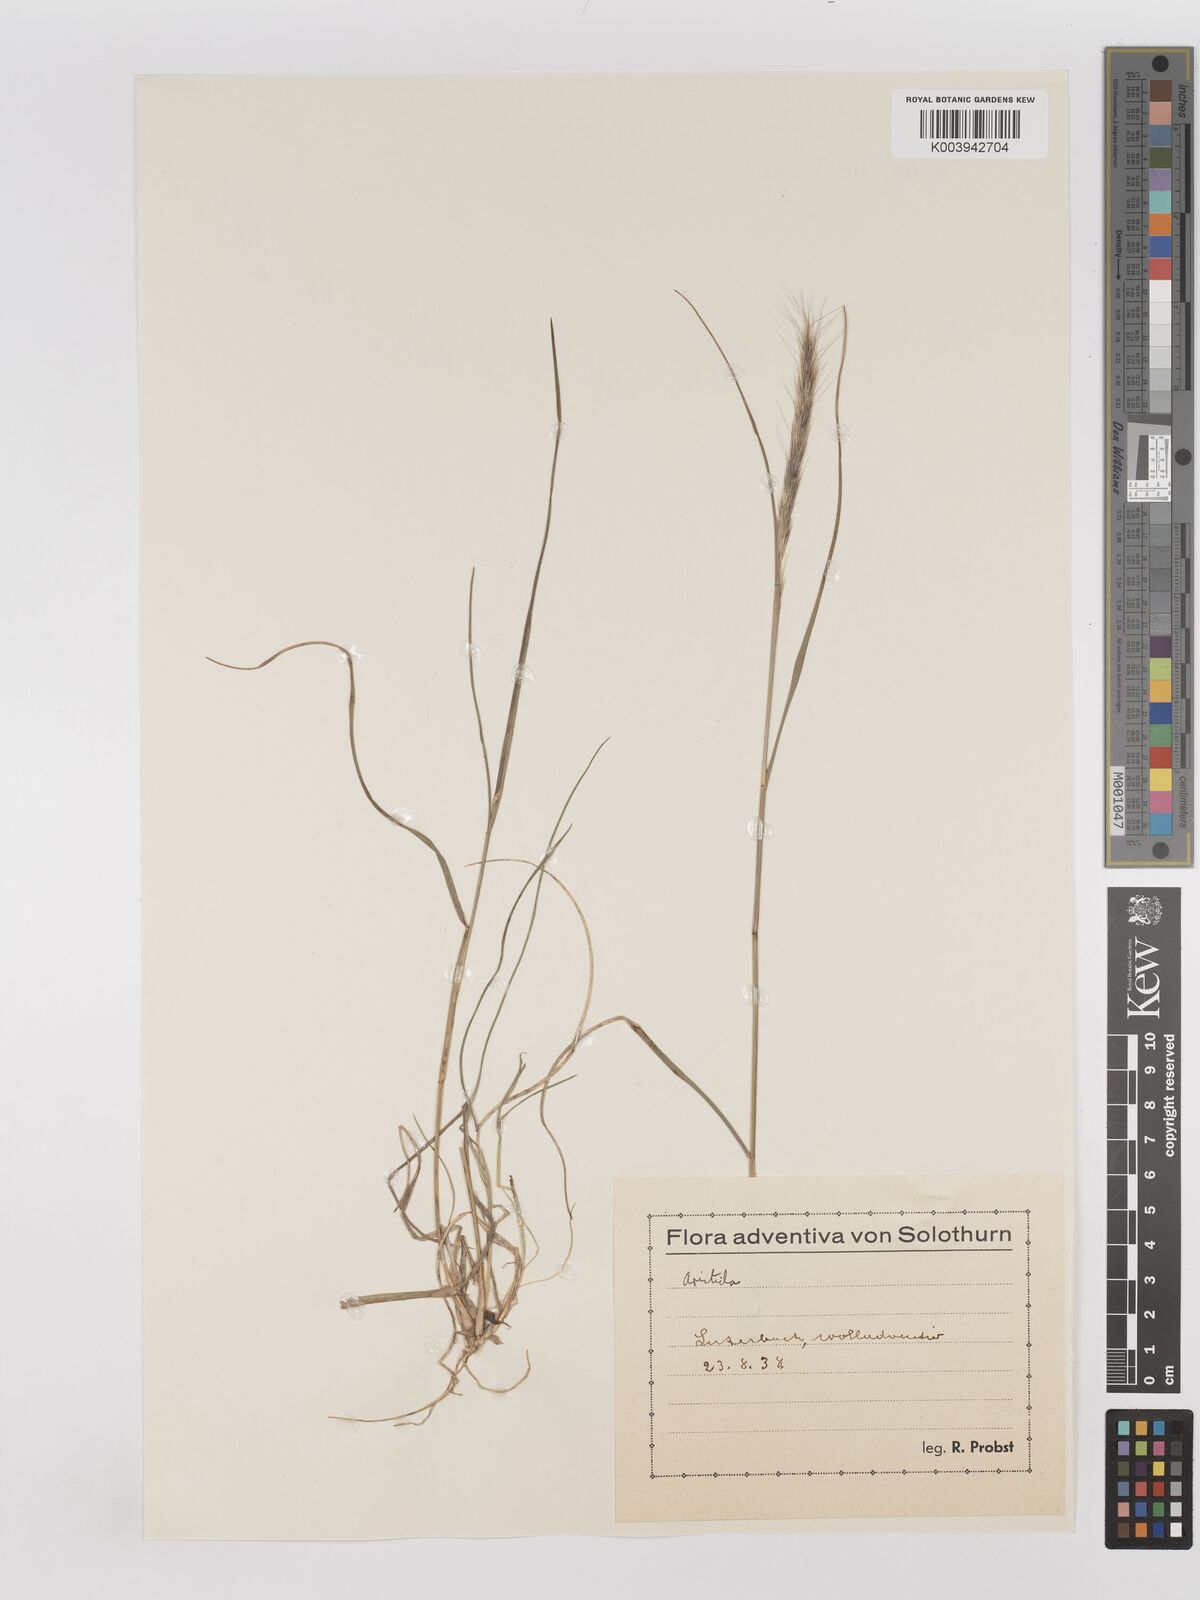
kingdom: Plantae
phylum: Tracheophyta
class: Liliopsida
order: Poales
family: Poaceae
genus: Aristida
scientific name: Aristida
